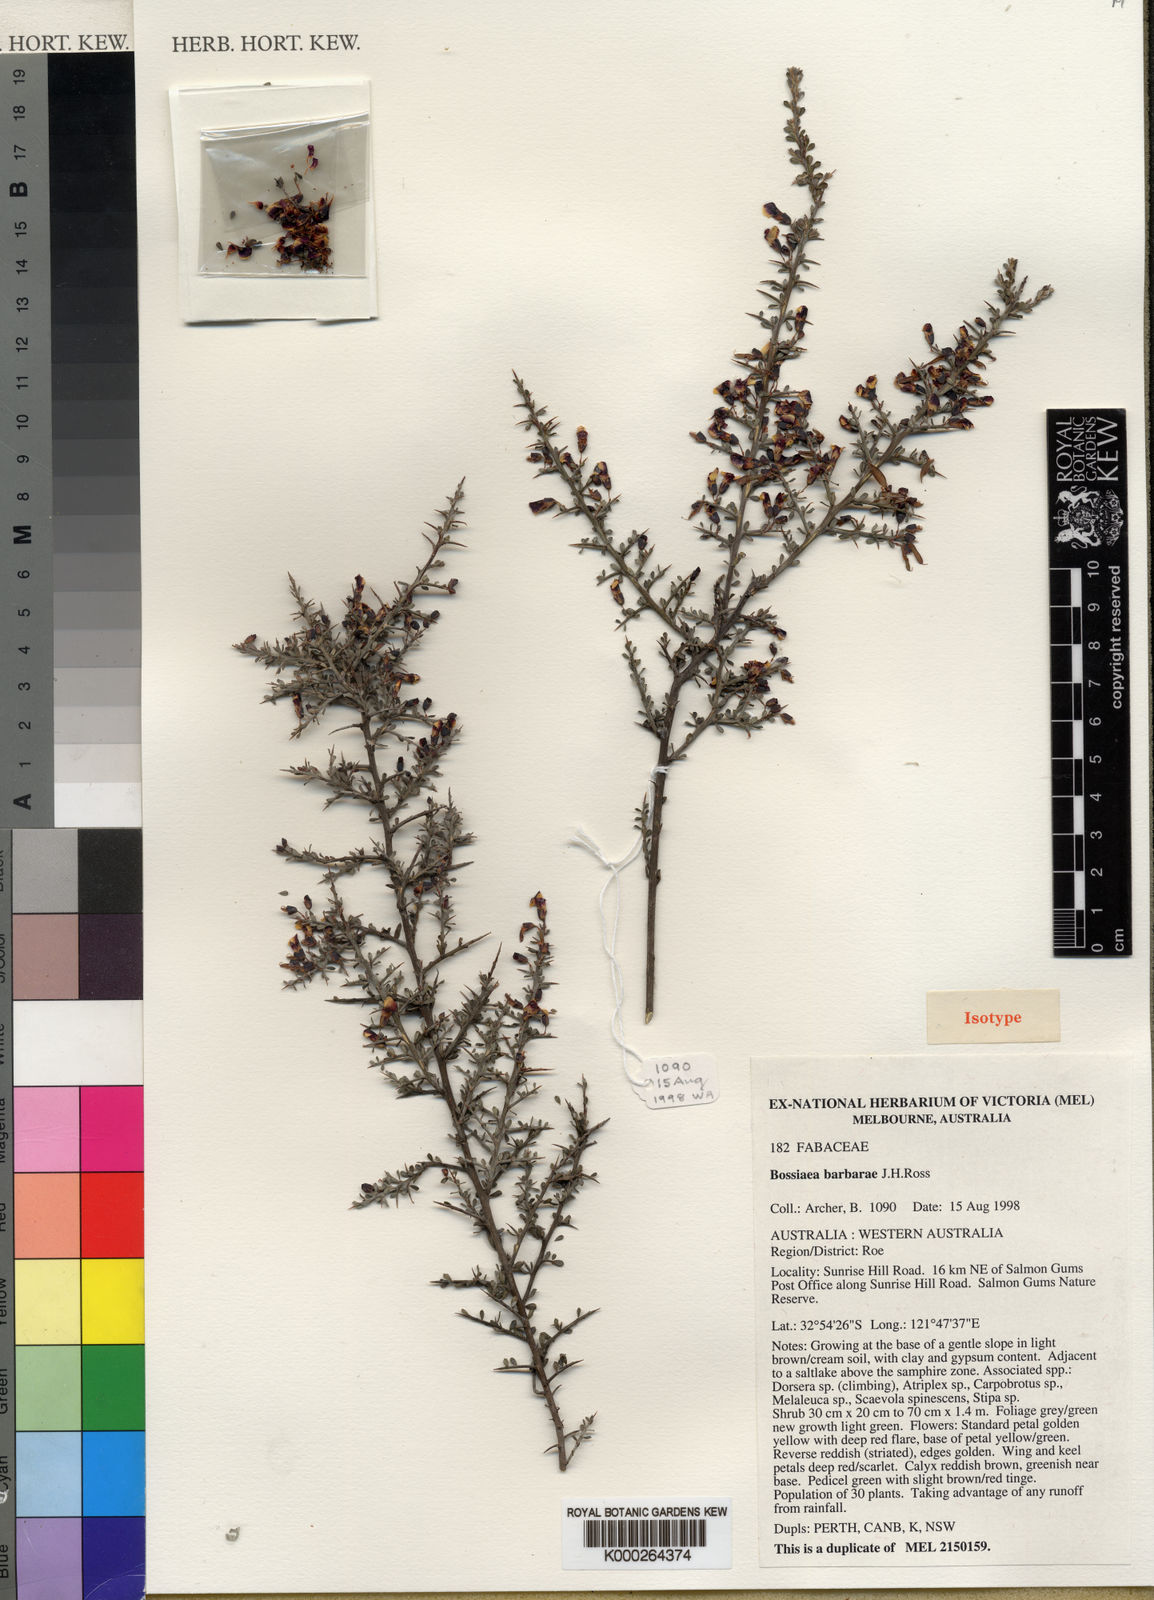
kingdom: Plantae
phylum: Tracheophyta
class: Magnoliopsida
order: Fabales
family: Fabaceae
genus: Bossiaea
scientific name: Bossiaea barbarae
